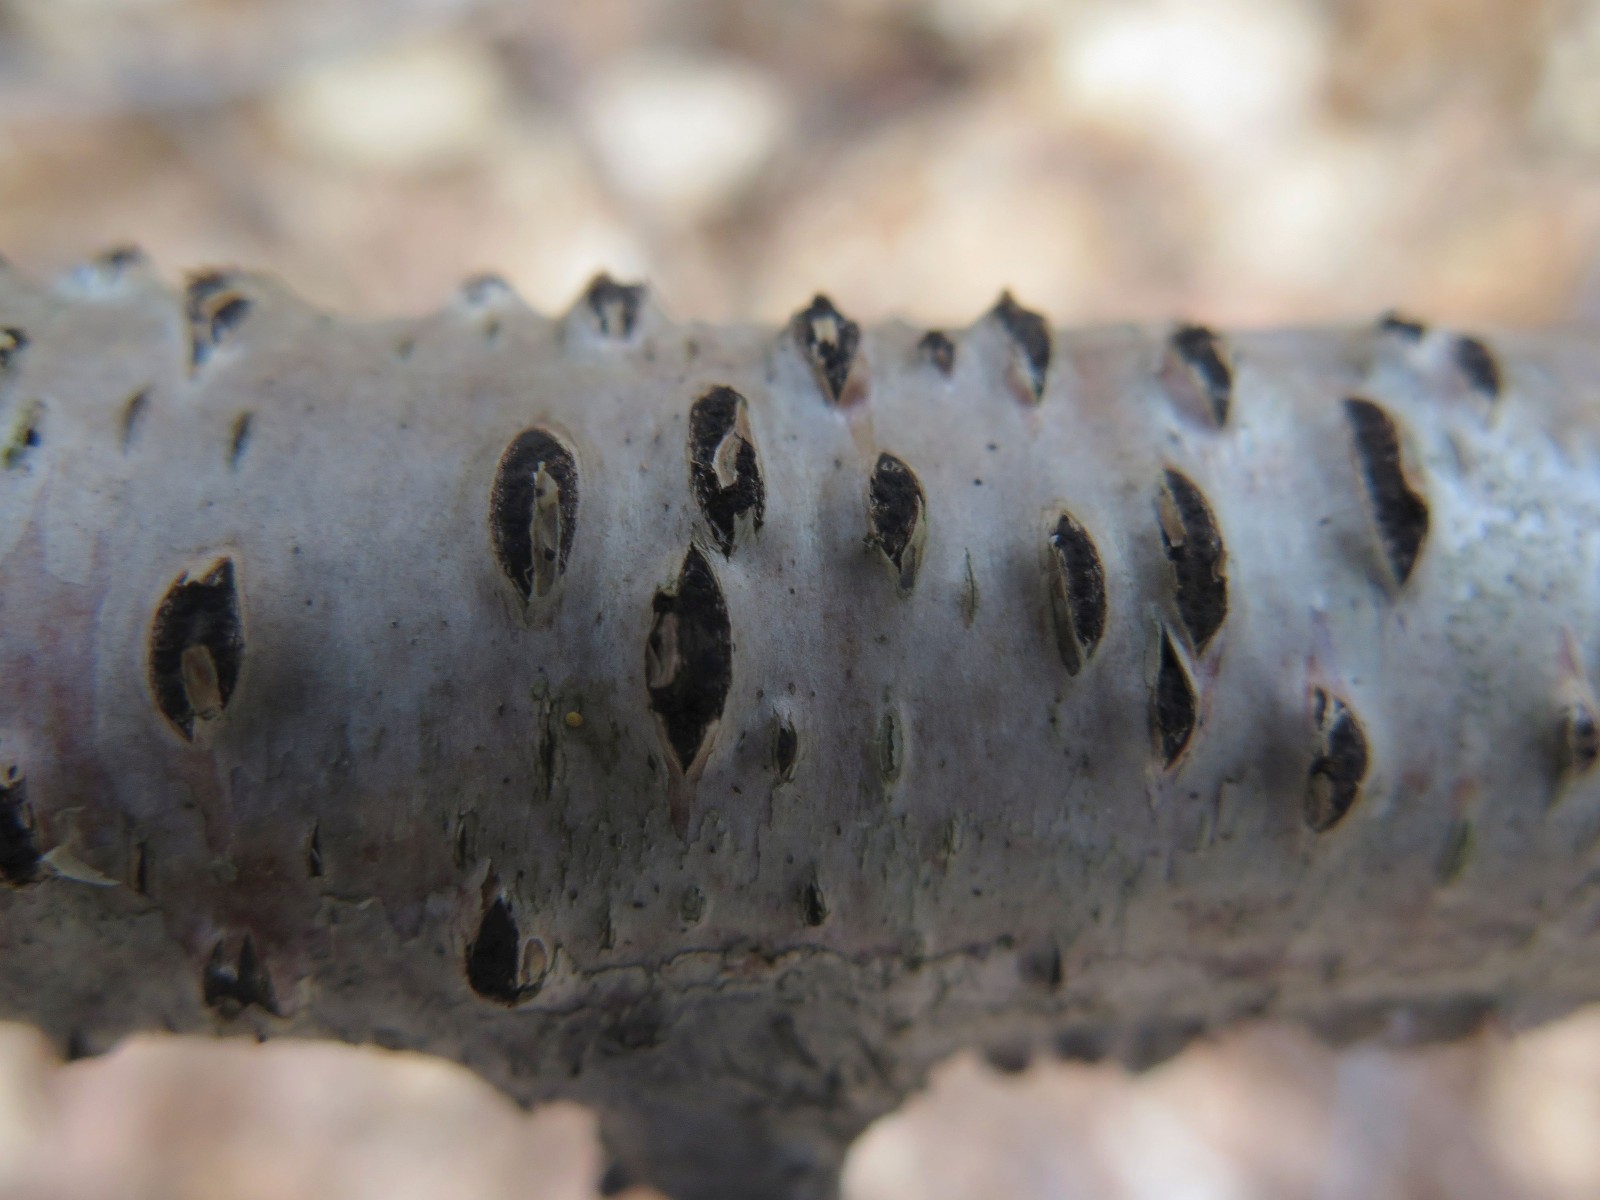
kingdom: Fungi
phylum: Ascomycota
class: Sordariomycetes
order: Xylariales
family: Diatrypaceae
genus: Diatrypella
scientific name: Diatrypella favacea
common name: Birch blackhead
